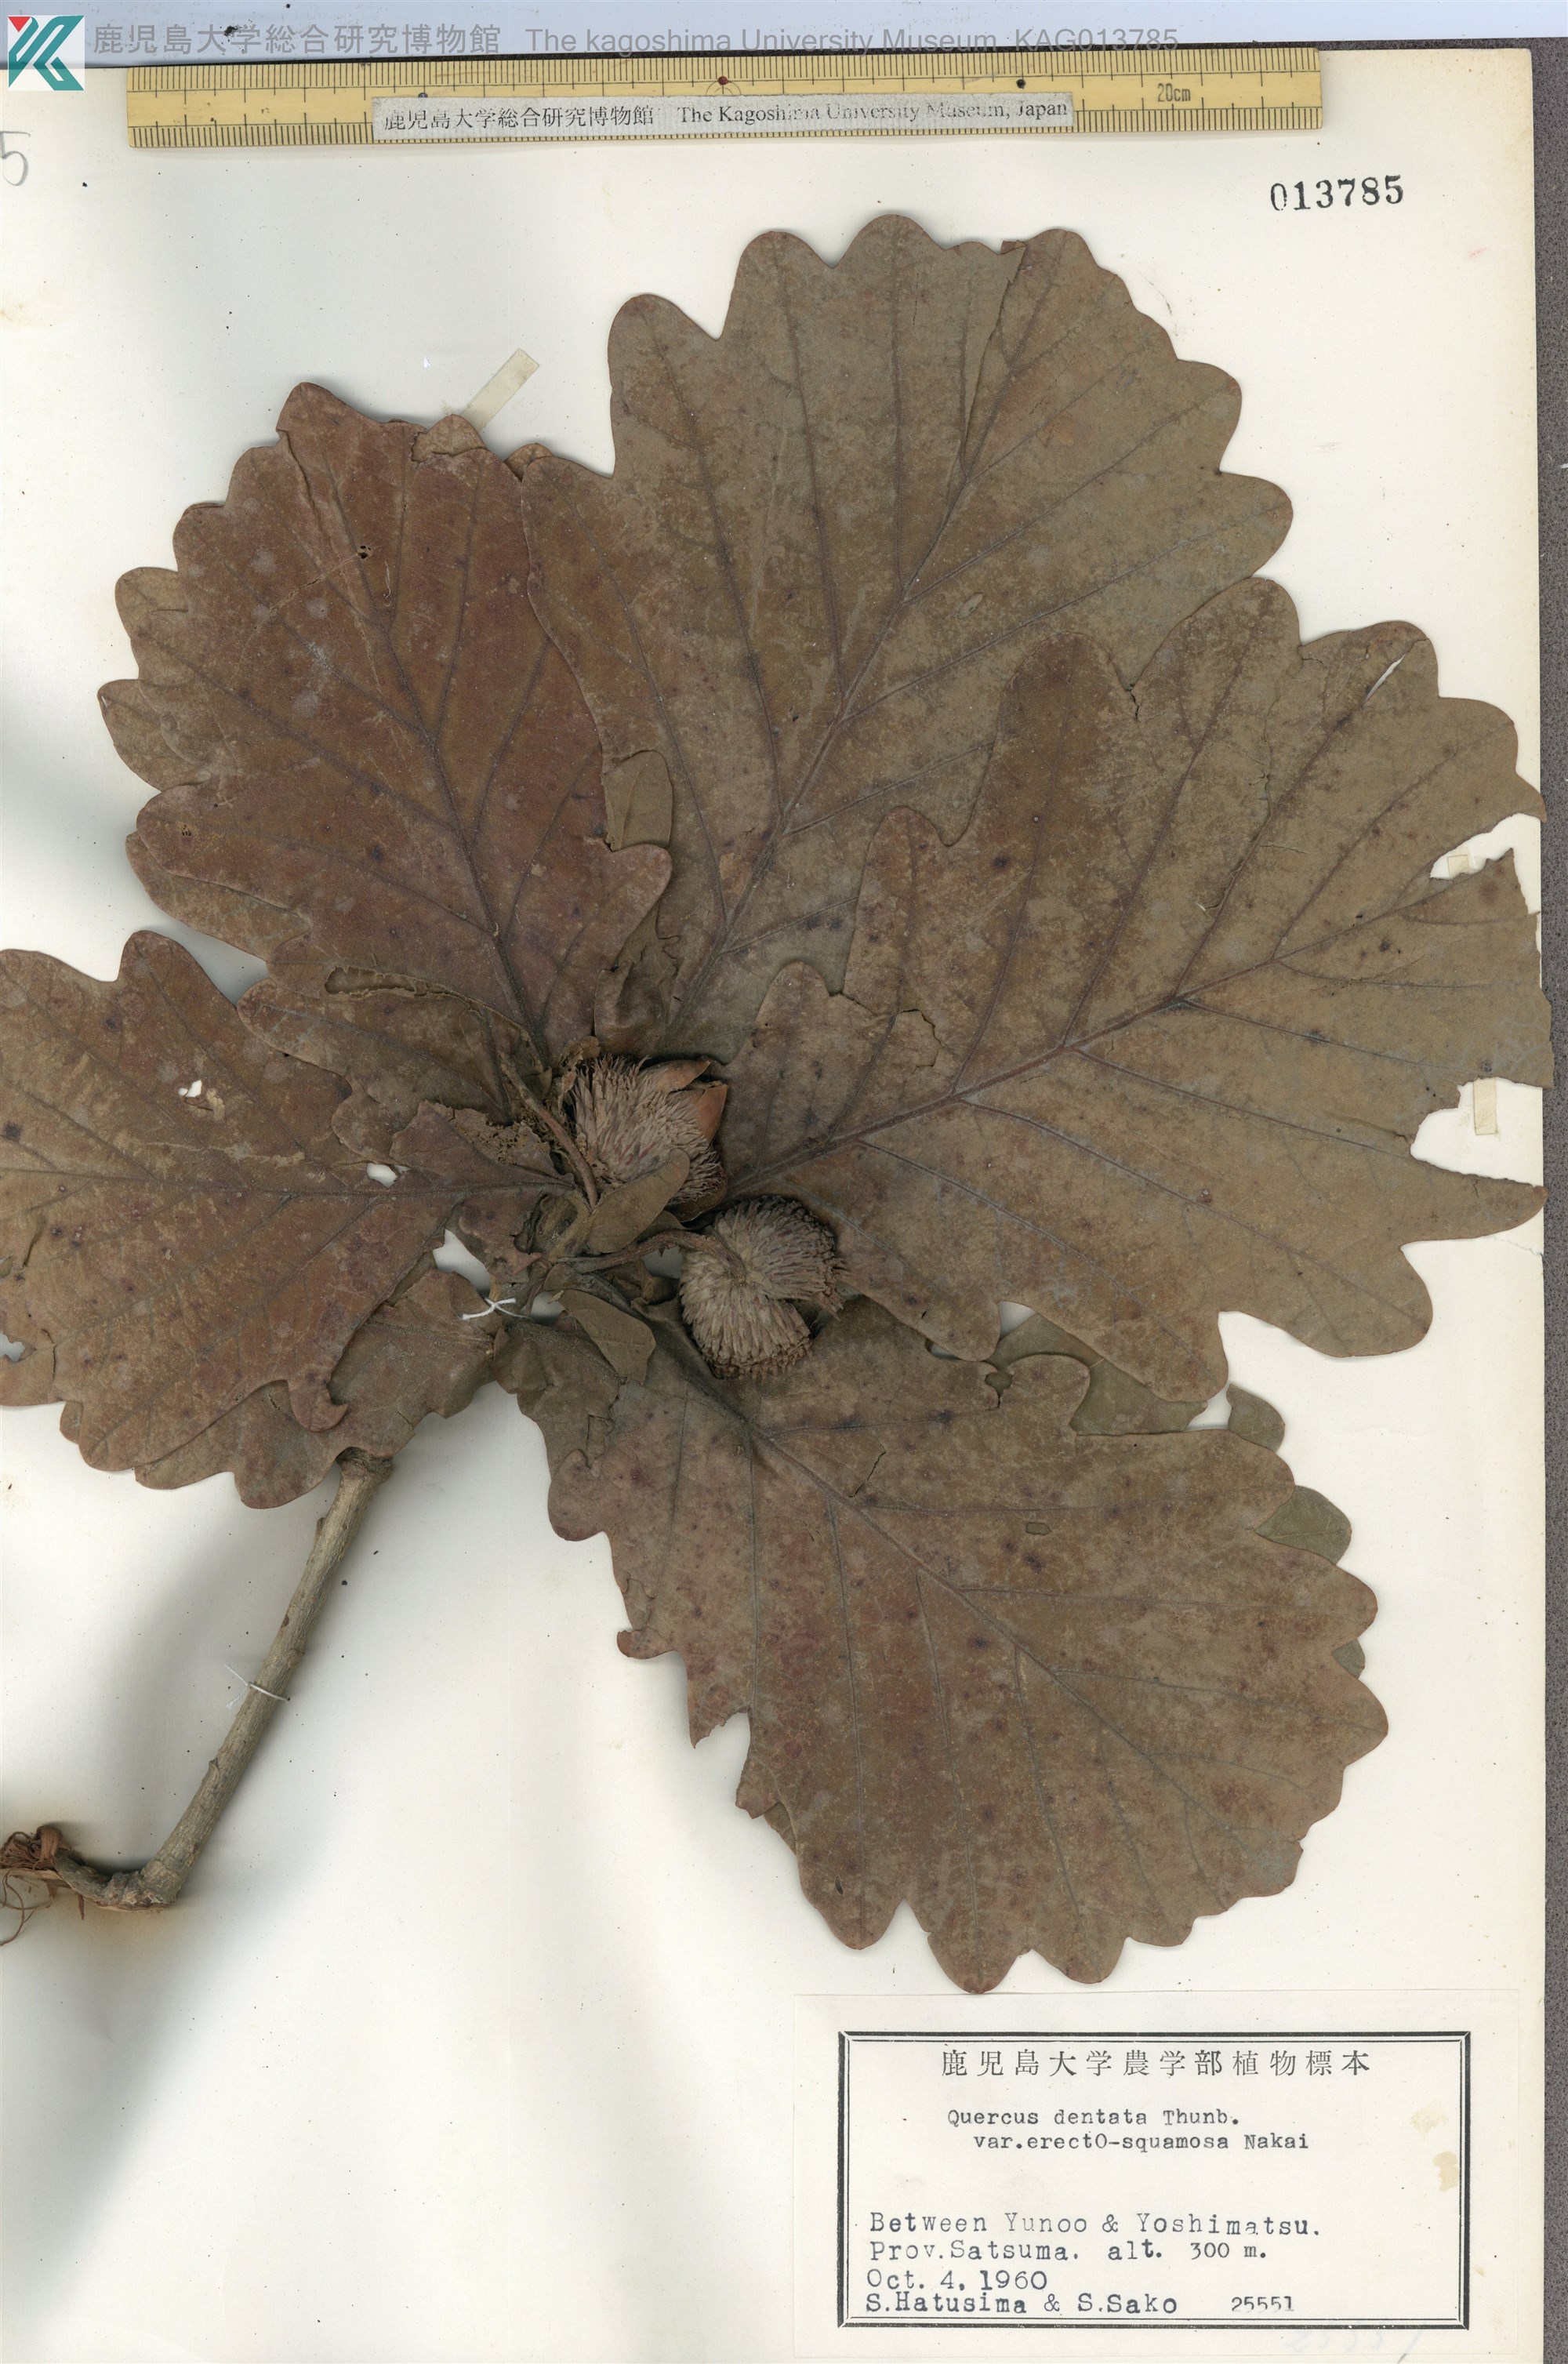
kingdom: Plantae
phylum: Tracheophyta
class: Magnoliopsida
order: Fagales
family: Fagaceae
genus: Quercus
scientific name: Quercus dentata
